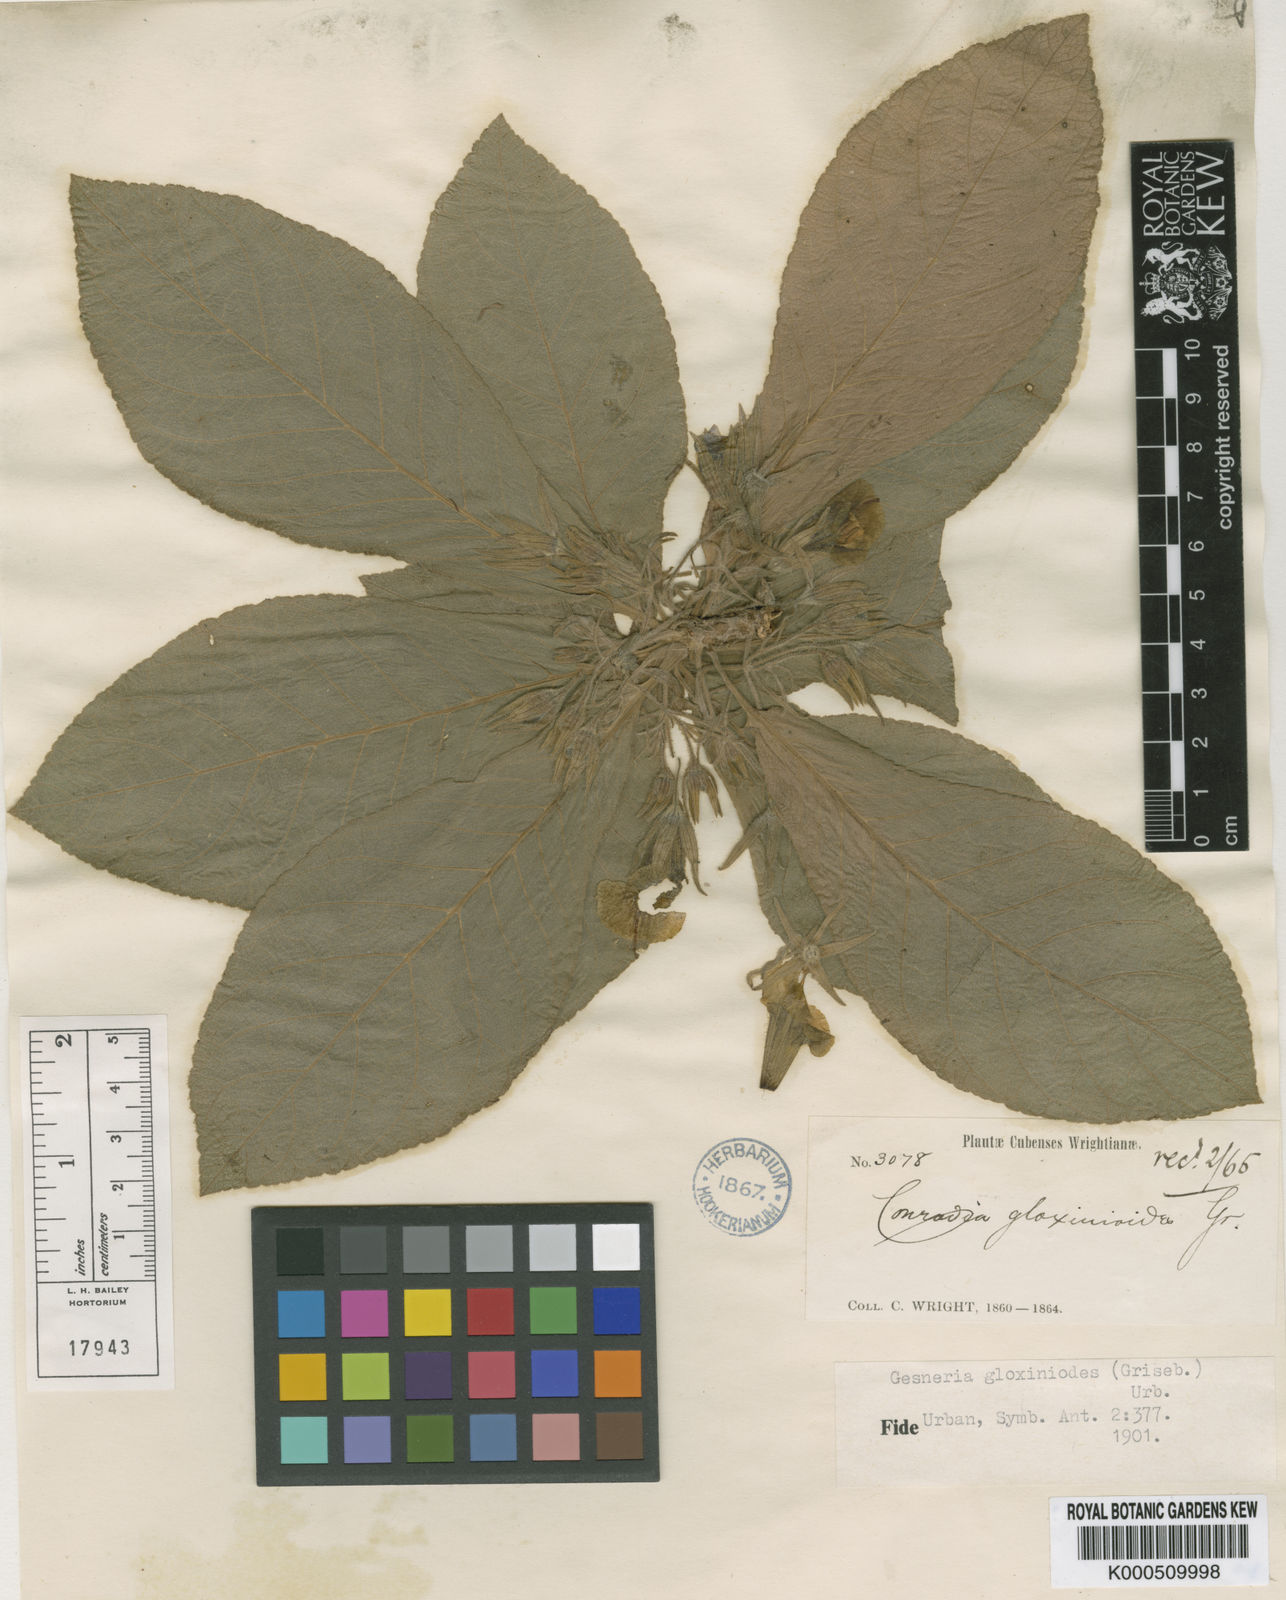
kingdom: Plantae
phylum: Tracheophyta
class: Magnoliopsida
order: Lamiales
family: Gesneriaceae
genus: Gesneria
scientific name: Gesneria gloxinioides
